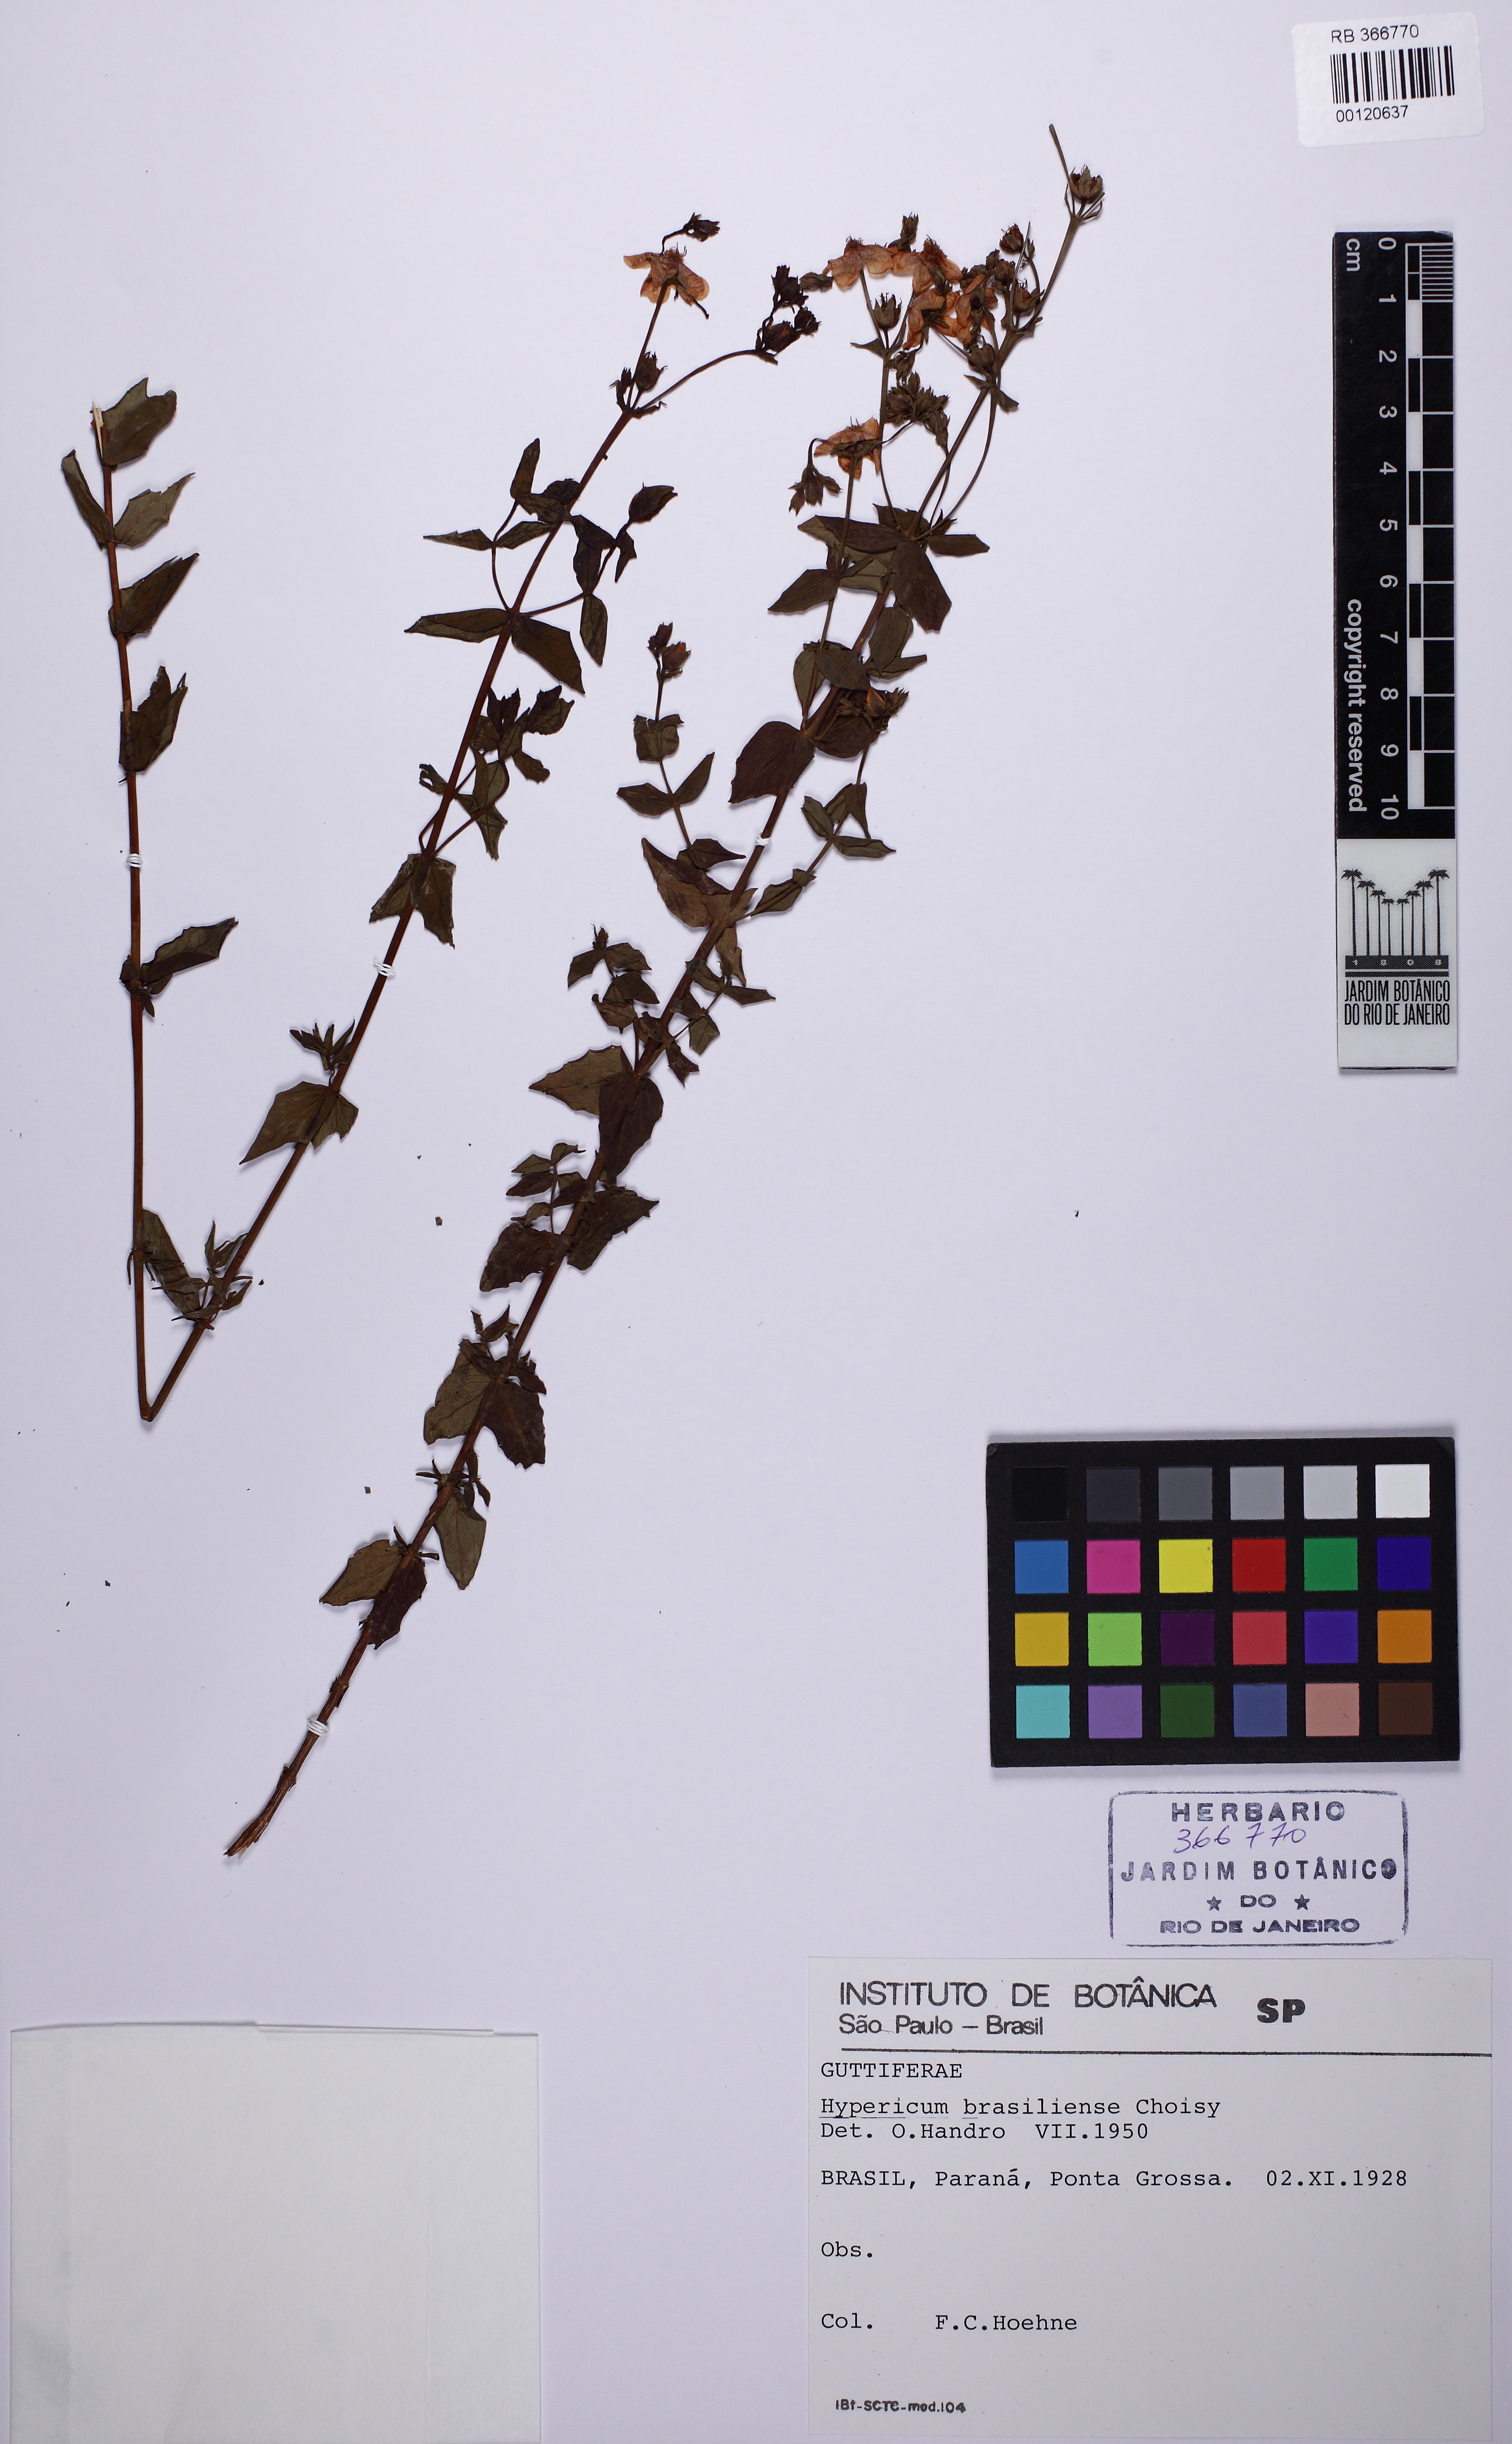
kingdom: Plantae
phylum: Tracheophyta
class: Magnoliopsida
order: Malpighiales
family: Hypericaceae
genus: Hypericum
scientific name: Hypericum brasiliense
